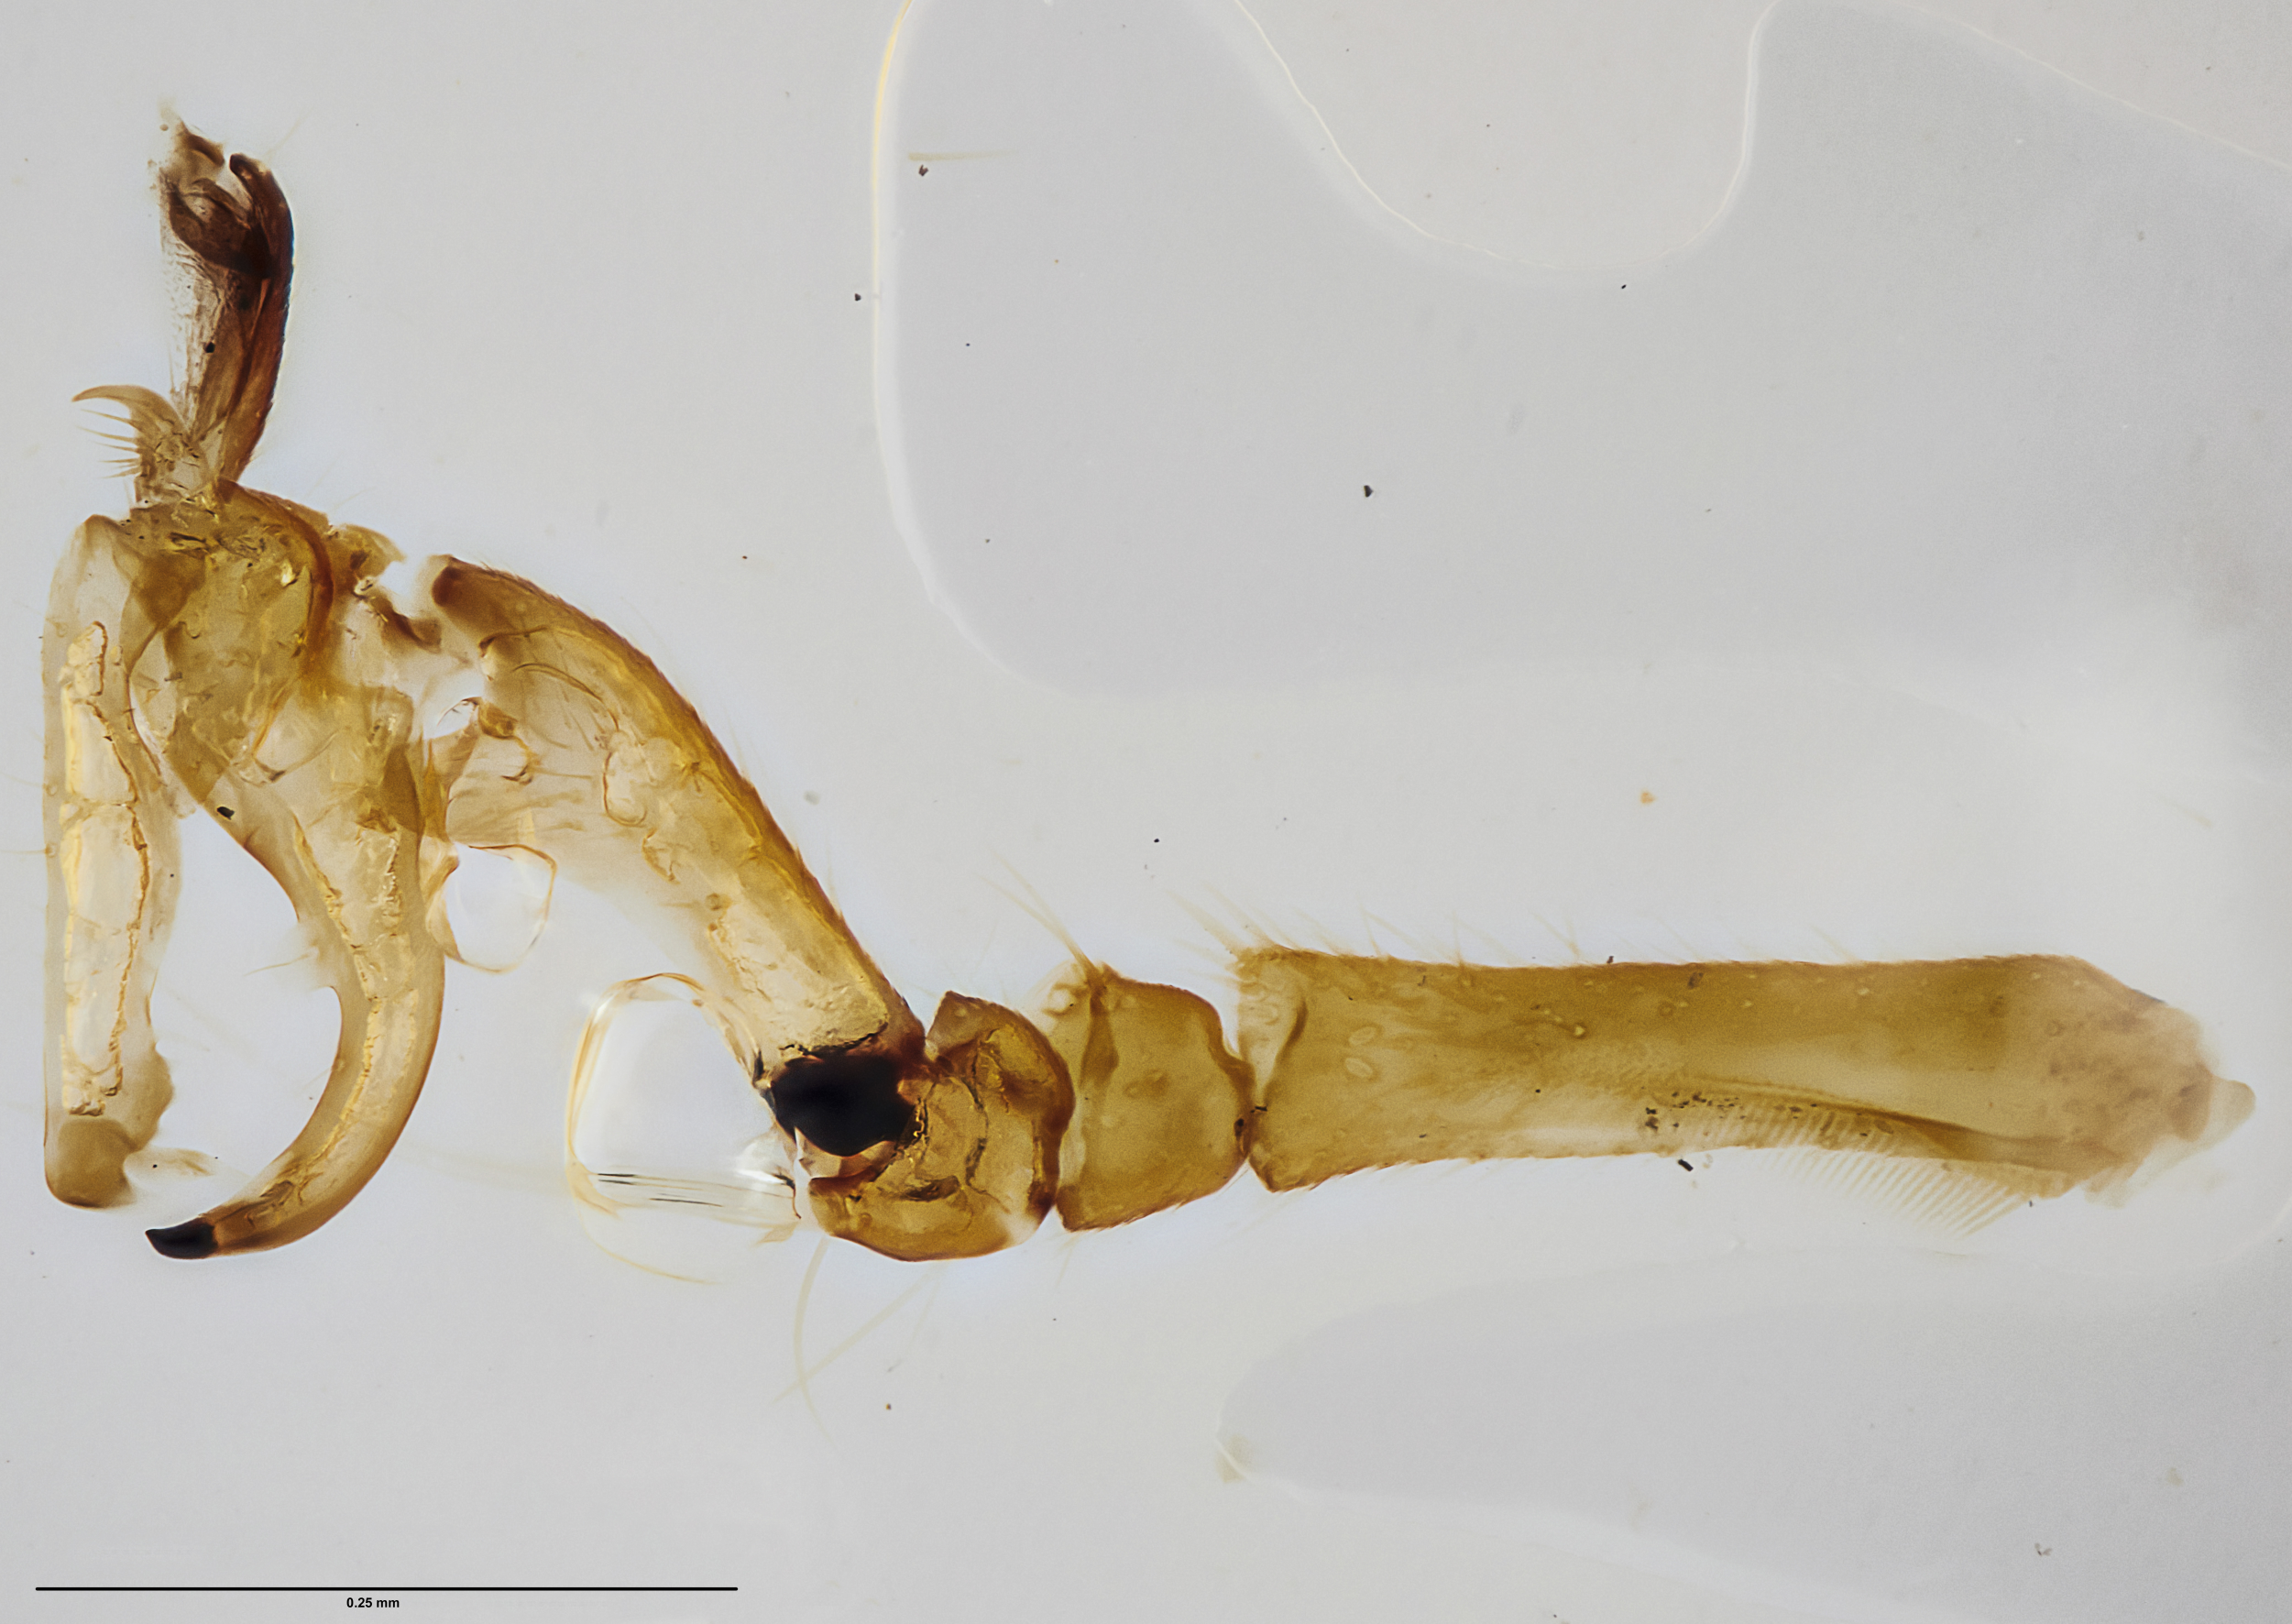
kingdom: Animalia
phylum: Arthropoda
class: Insecta
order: Hymenoptera
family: Dryinidae
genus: Bocchus
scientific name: Bocchus thorpei
